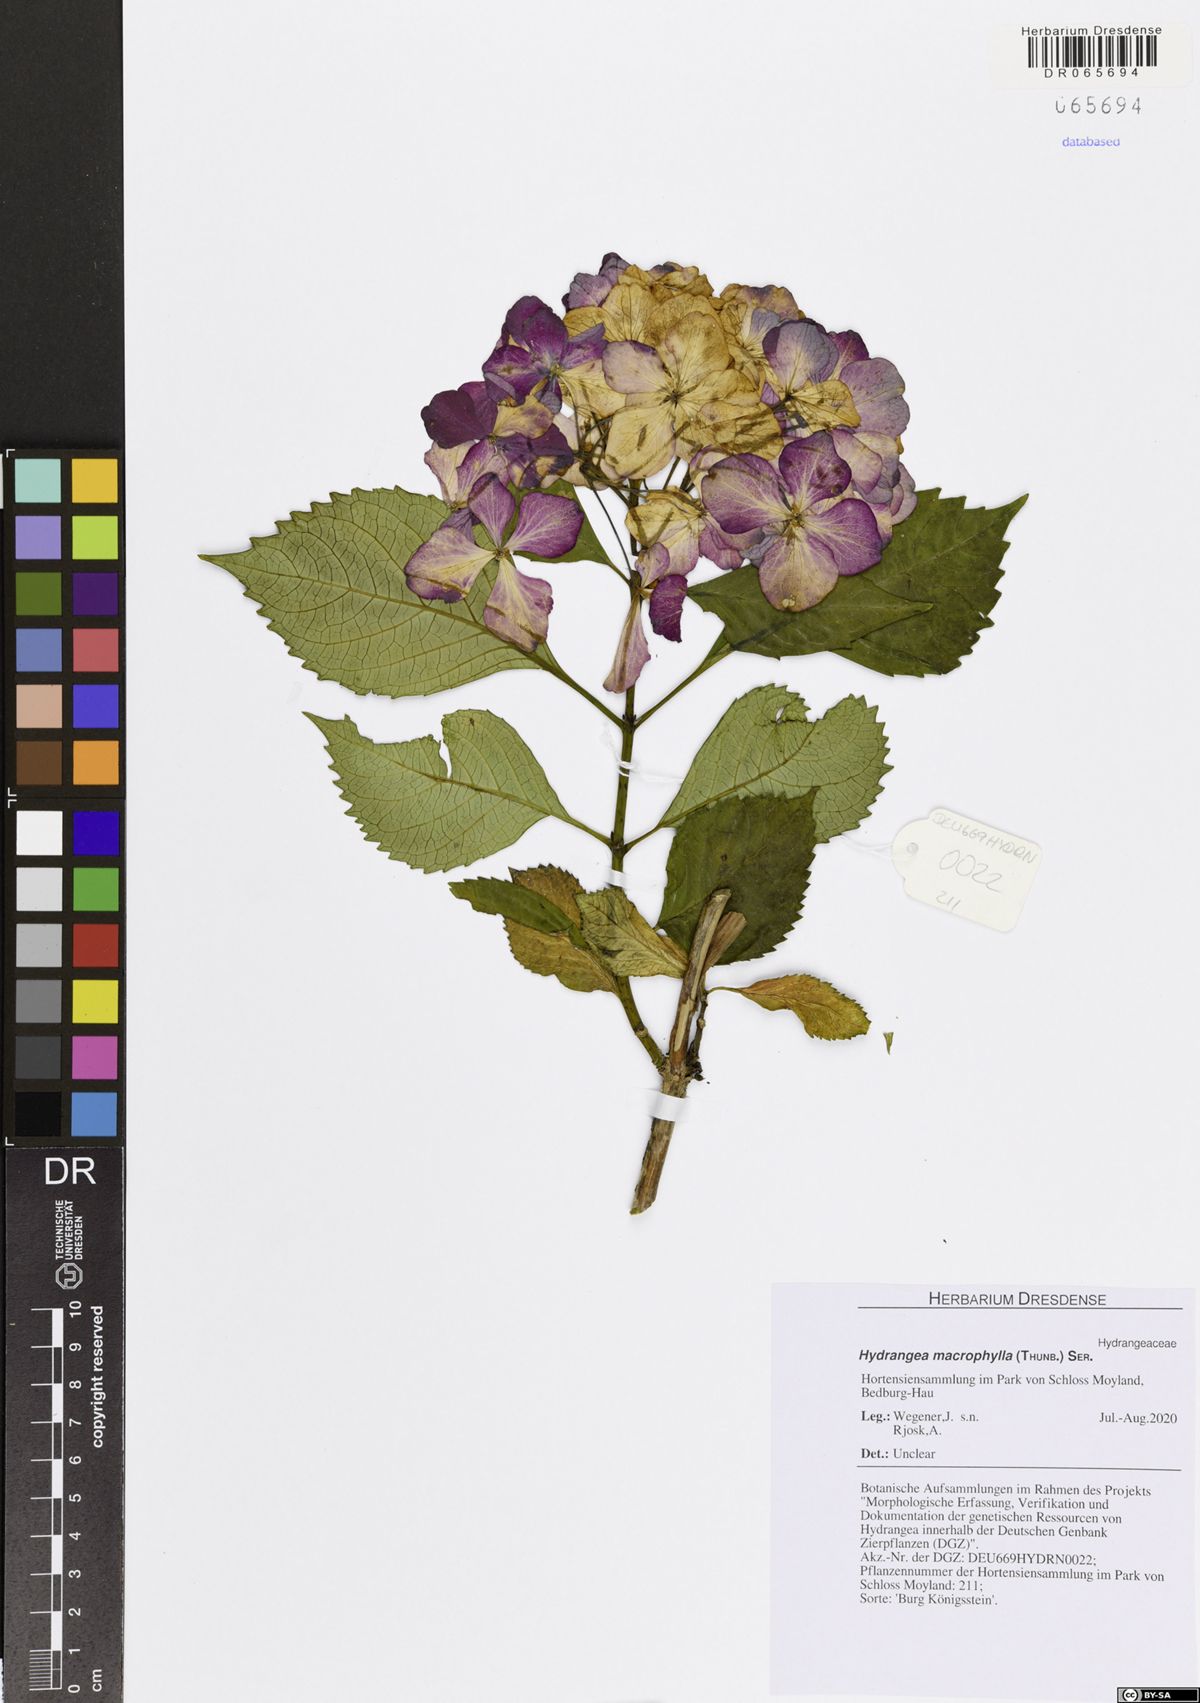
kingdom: Plantae
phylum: Tracheophyta
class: Magnoliopsida
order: Cornales
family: Hydrangeaceae
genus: Hydrangea
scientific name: Hydrangea macrophylla
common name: Hydrangea
